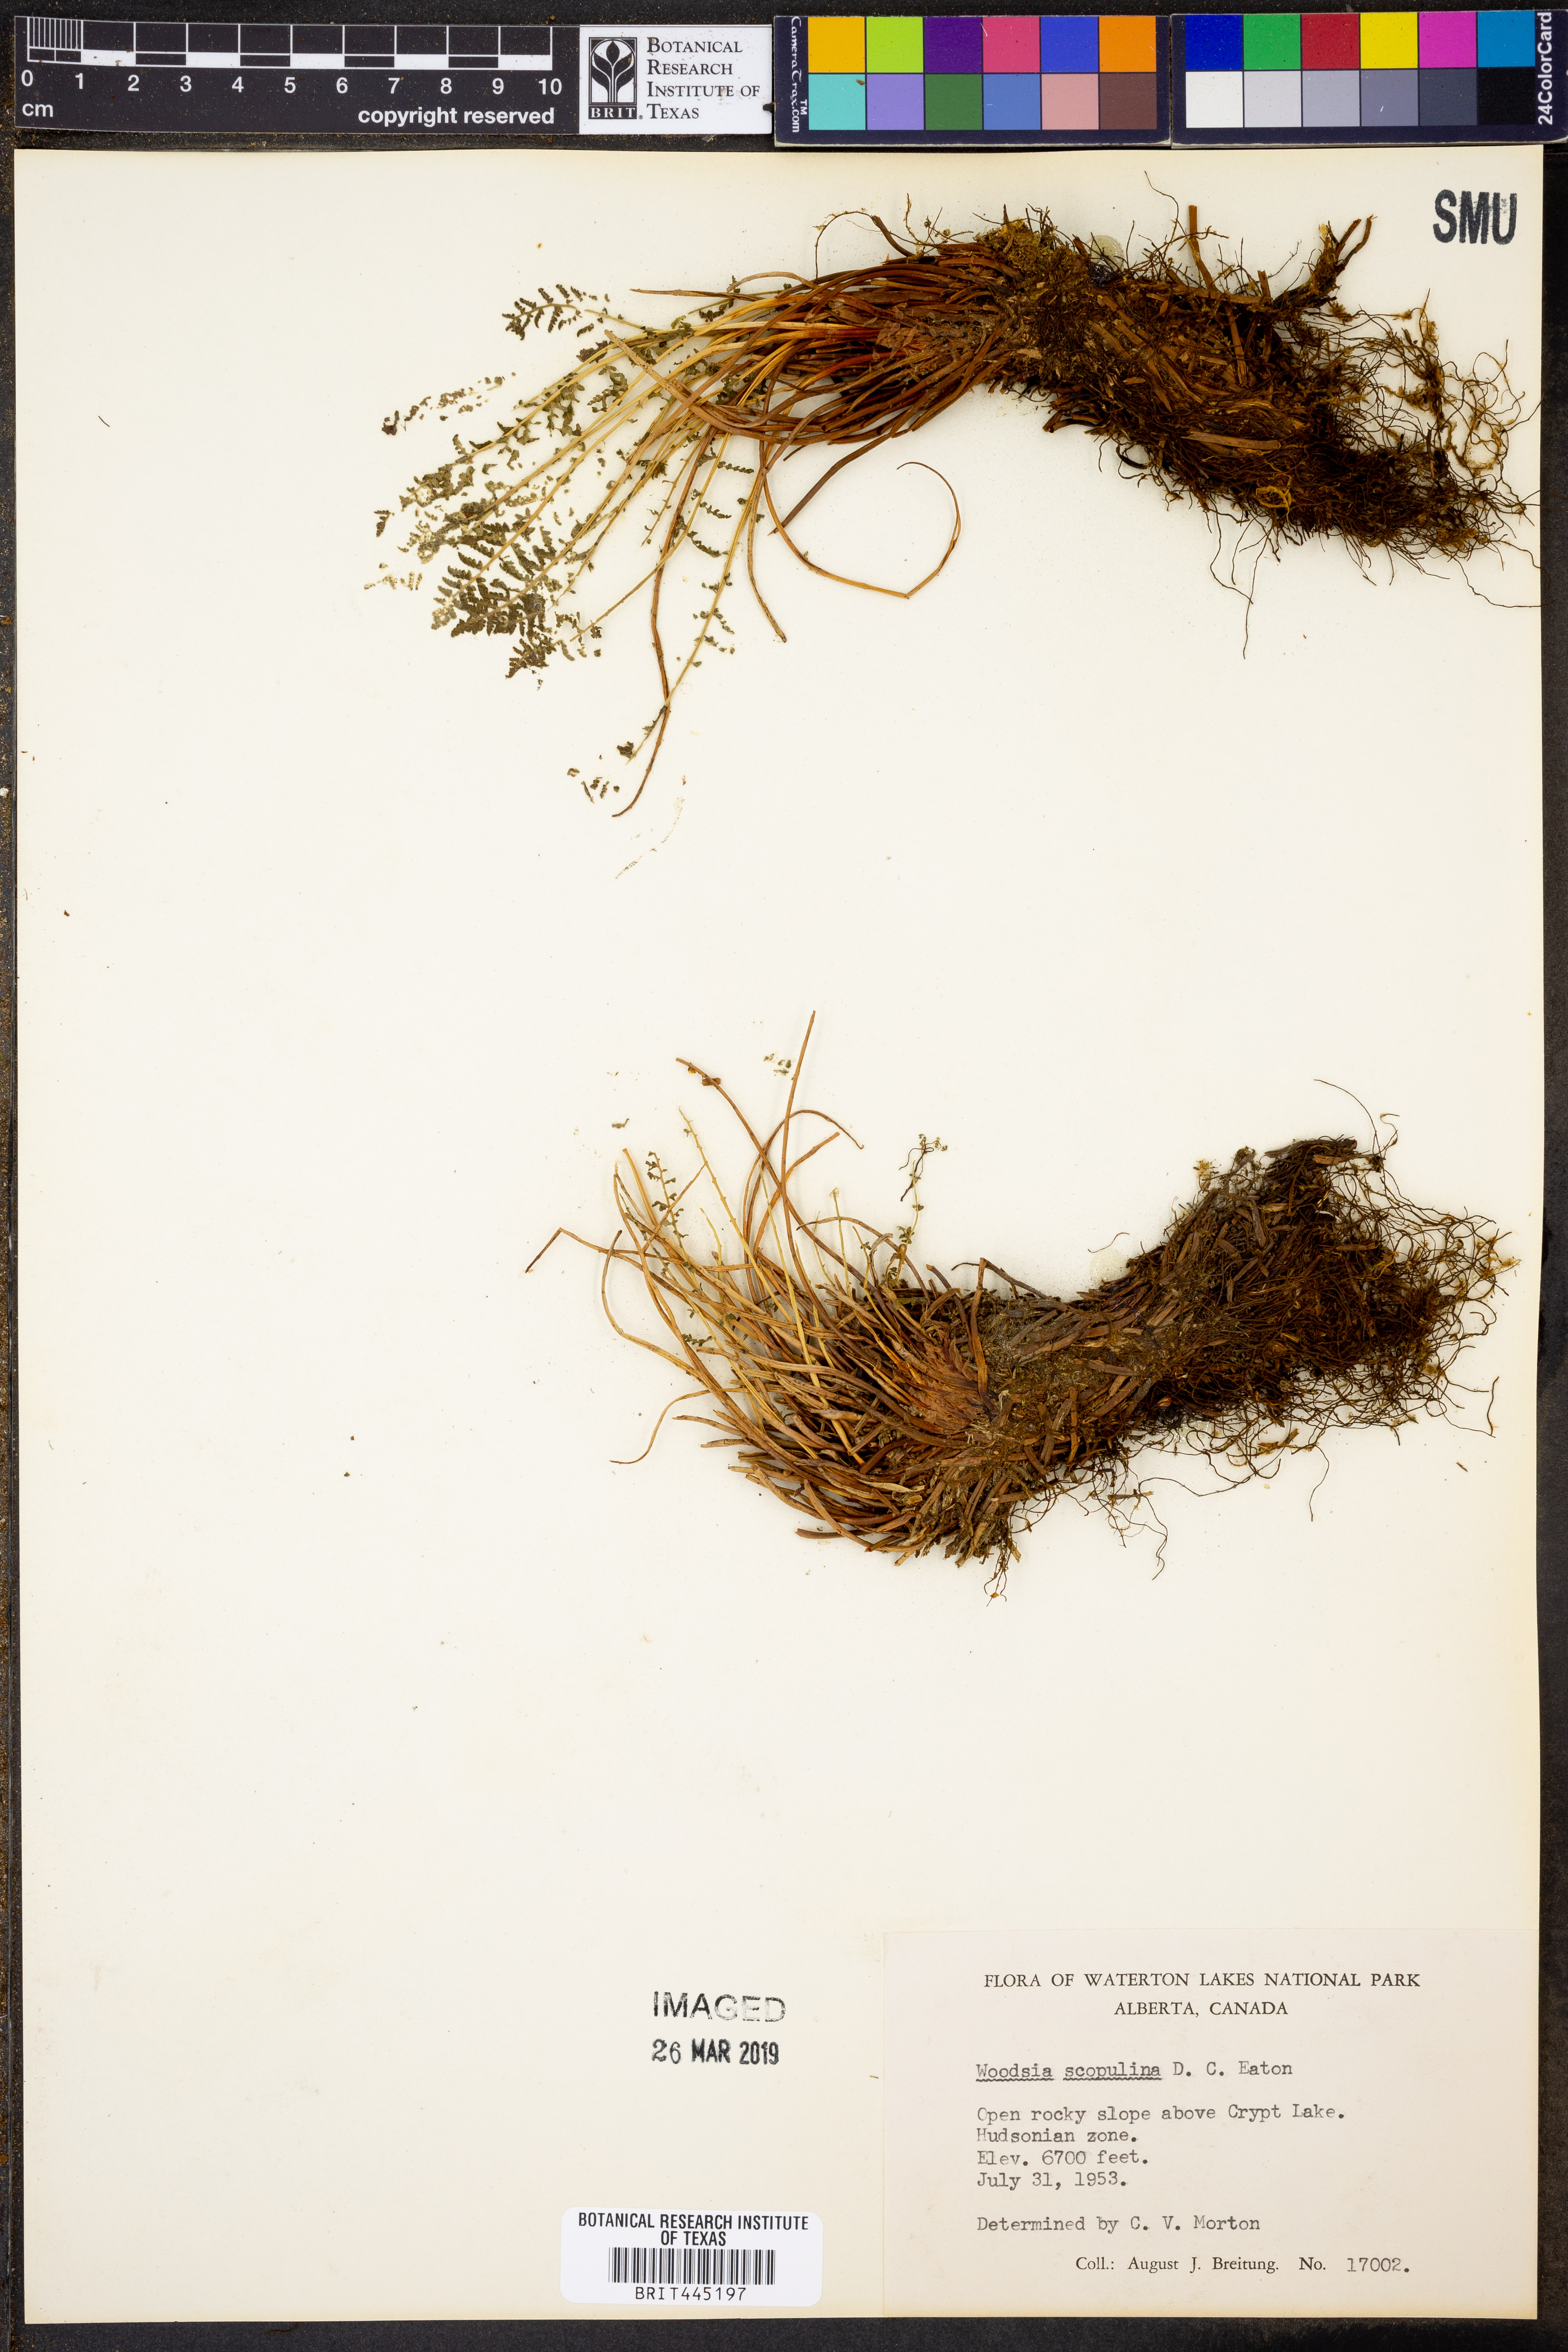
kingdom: Plantae
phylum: Tracheophyta
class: Polypodiopsida
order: Polypodiales
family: Woodsiaceae
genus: Physematium
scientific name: Physematium scopulinum
